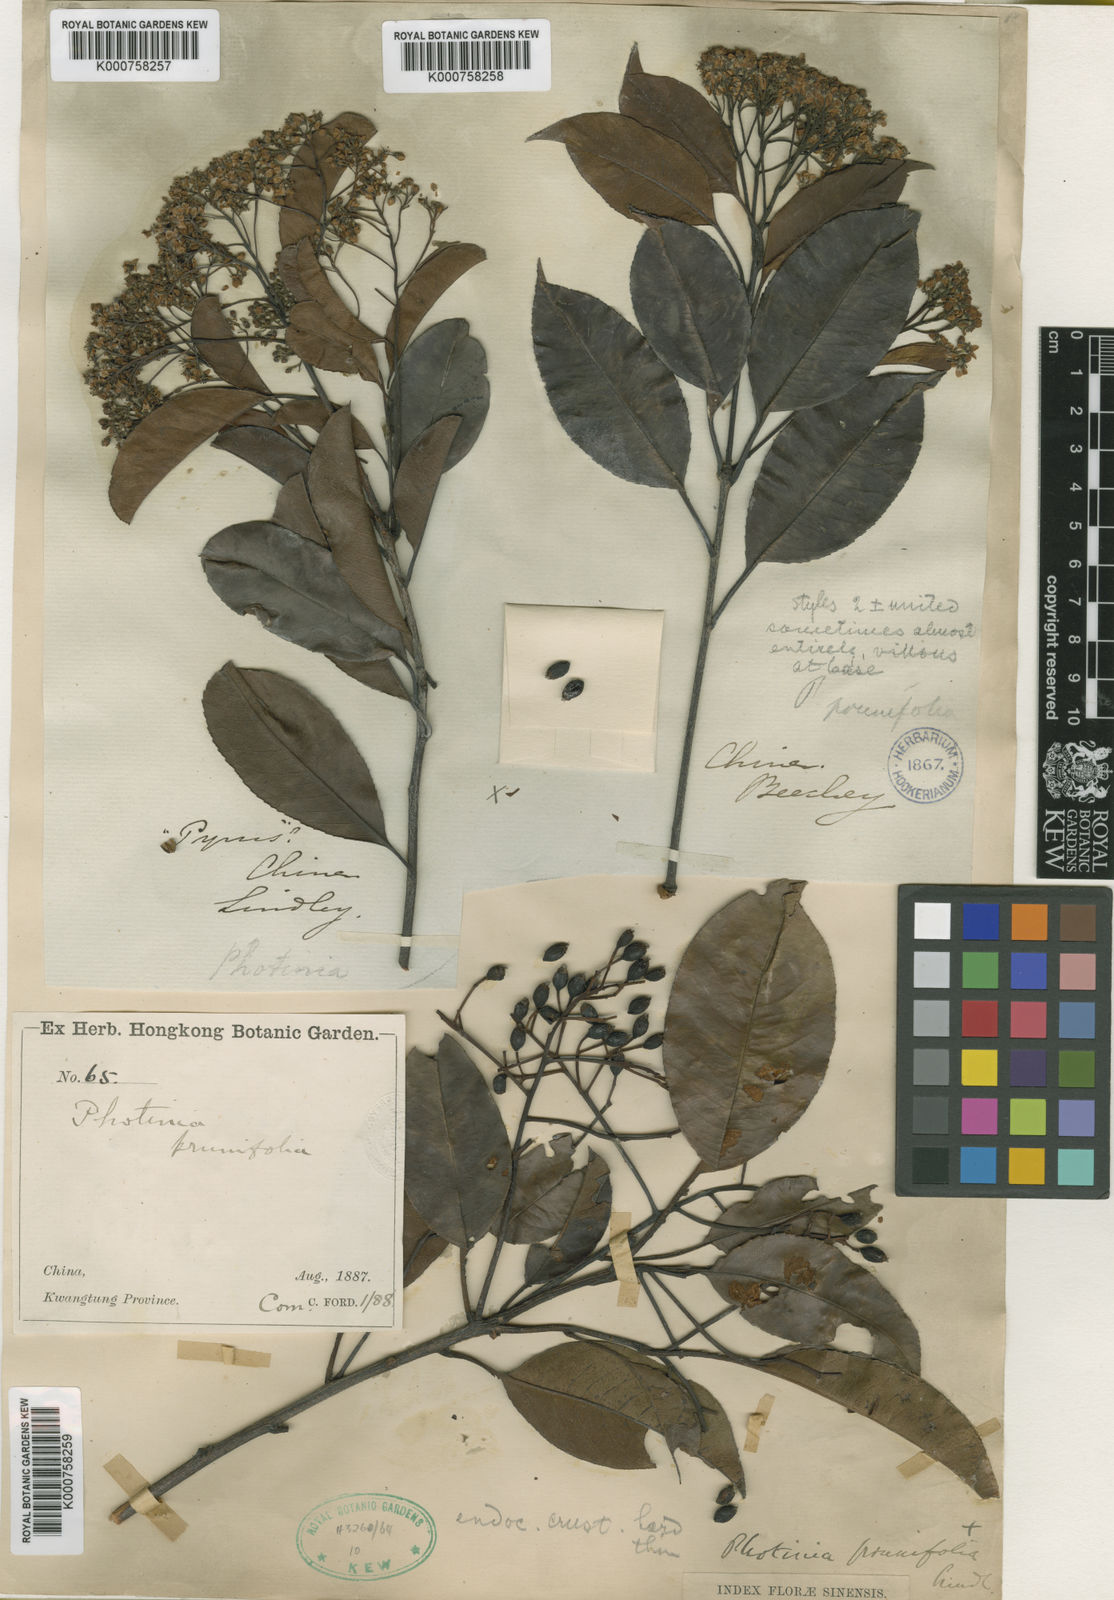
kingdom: Plantae
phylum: Tracheophyta
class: Magnoliopsida
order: Rosales
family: Rosaceae
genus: Photinia
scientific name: Photinia prunifolia
